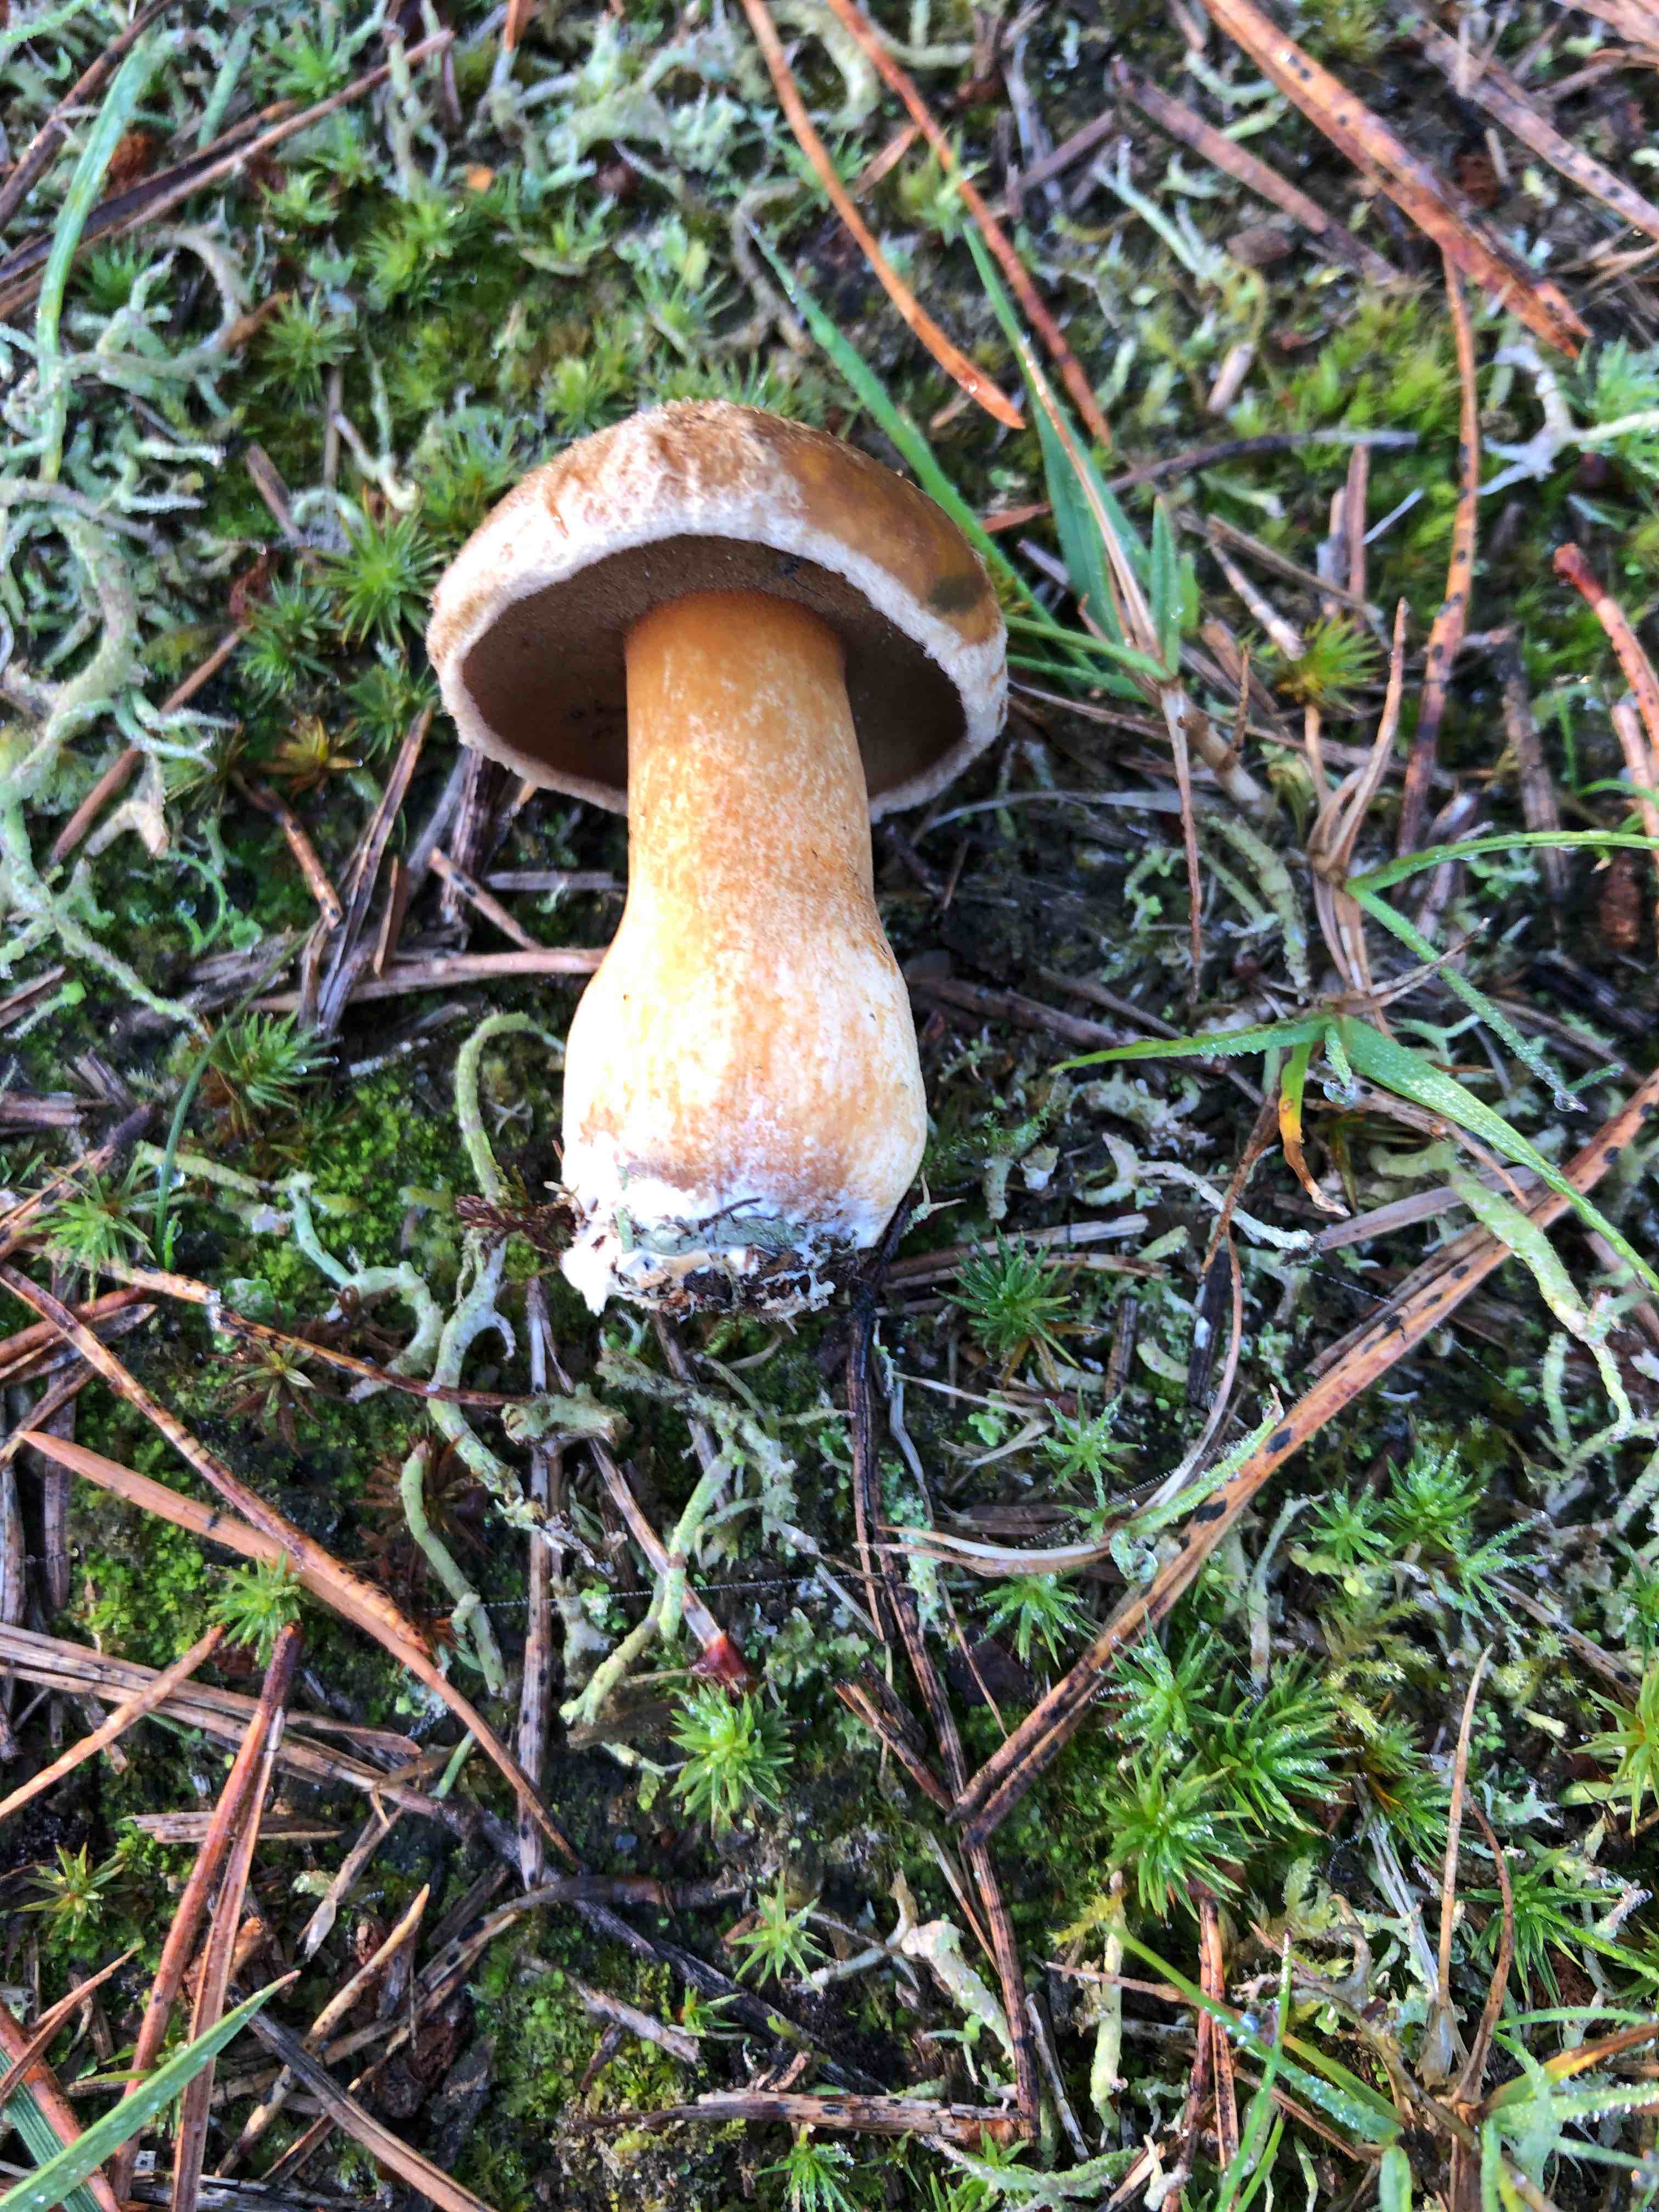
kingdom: Fungi
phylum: Basidiomycota
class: Agaricomycetes
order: Boletales
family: Suillaceae
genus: Suillus
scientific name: Suillus variegatus
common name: broget slimrørhat
